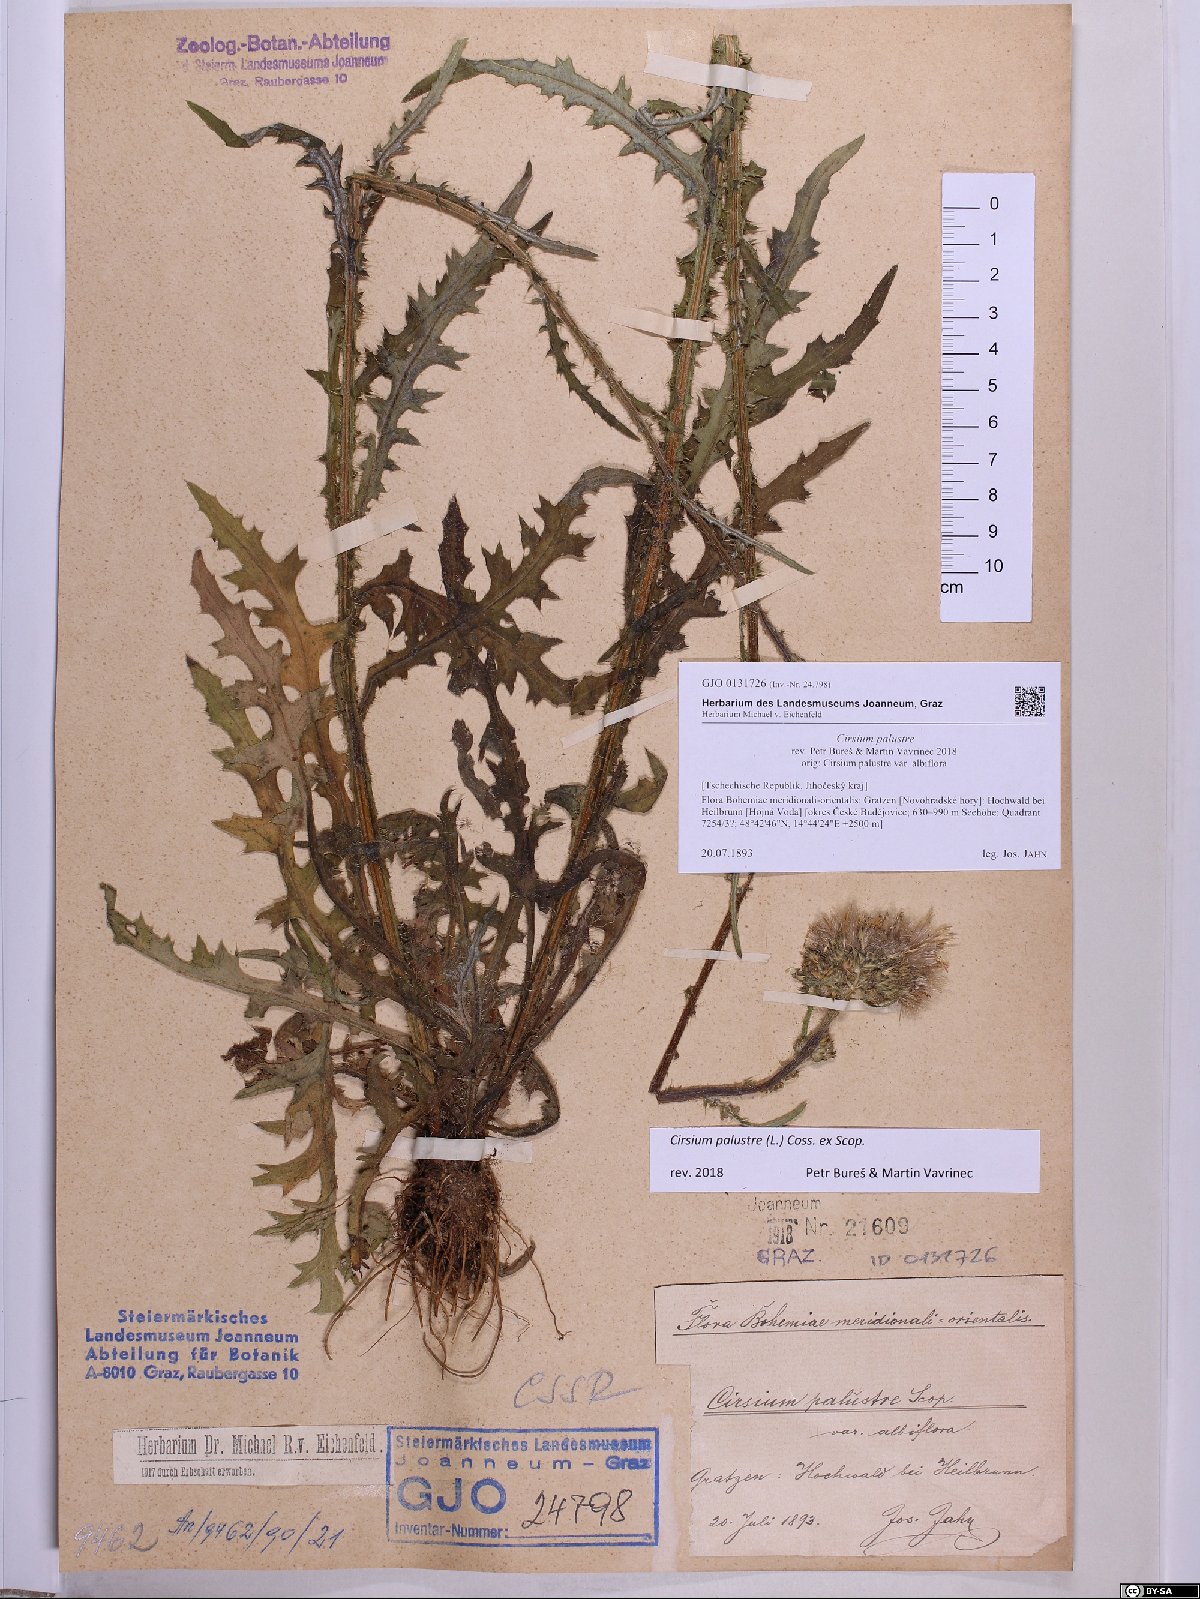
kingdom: Plantae
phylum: Tracheophyta
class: Magnoliopsida
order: Asterales
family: Asteraceae
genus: Cirsium
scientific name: Cirsium palustre
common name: Marsh thistle
